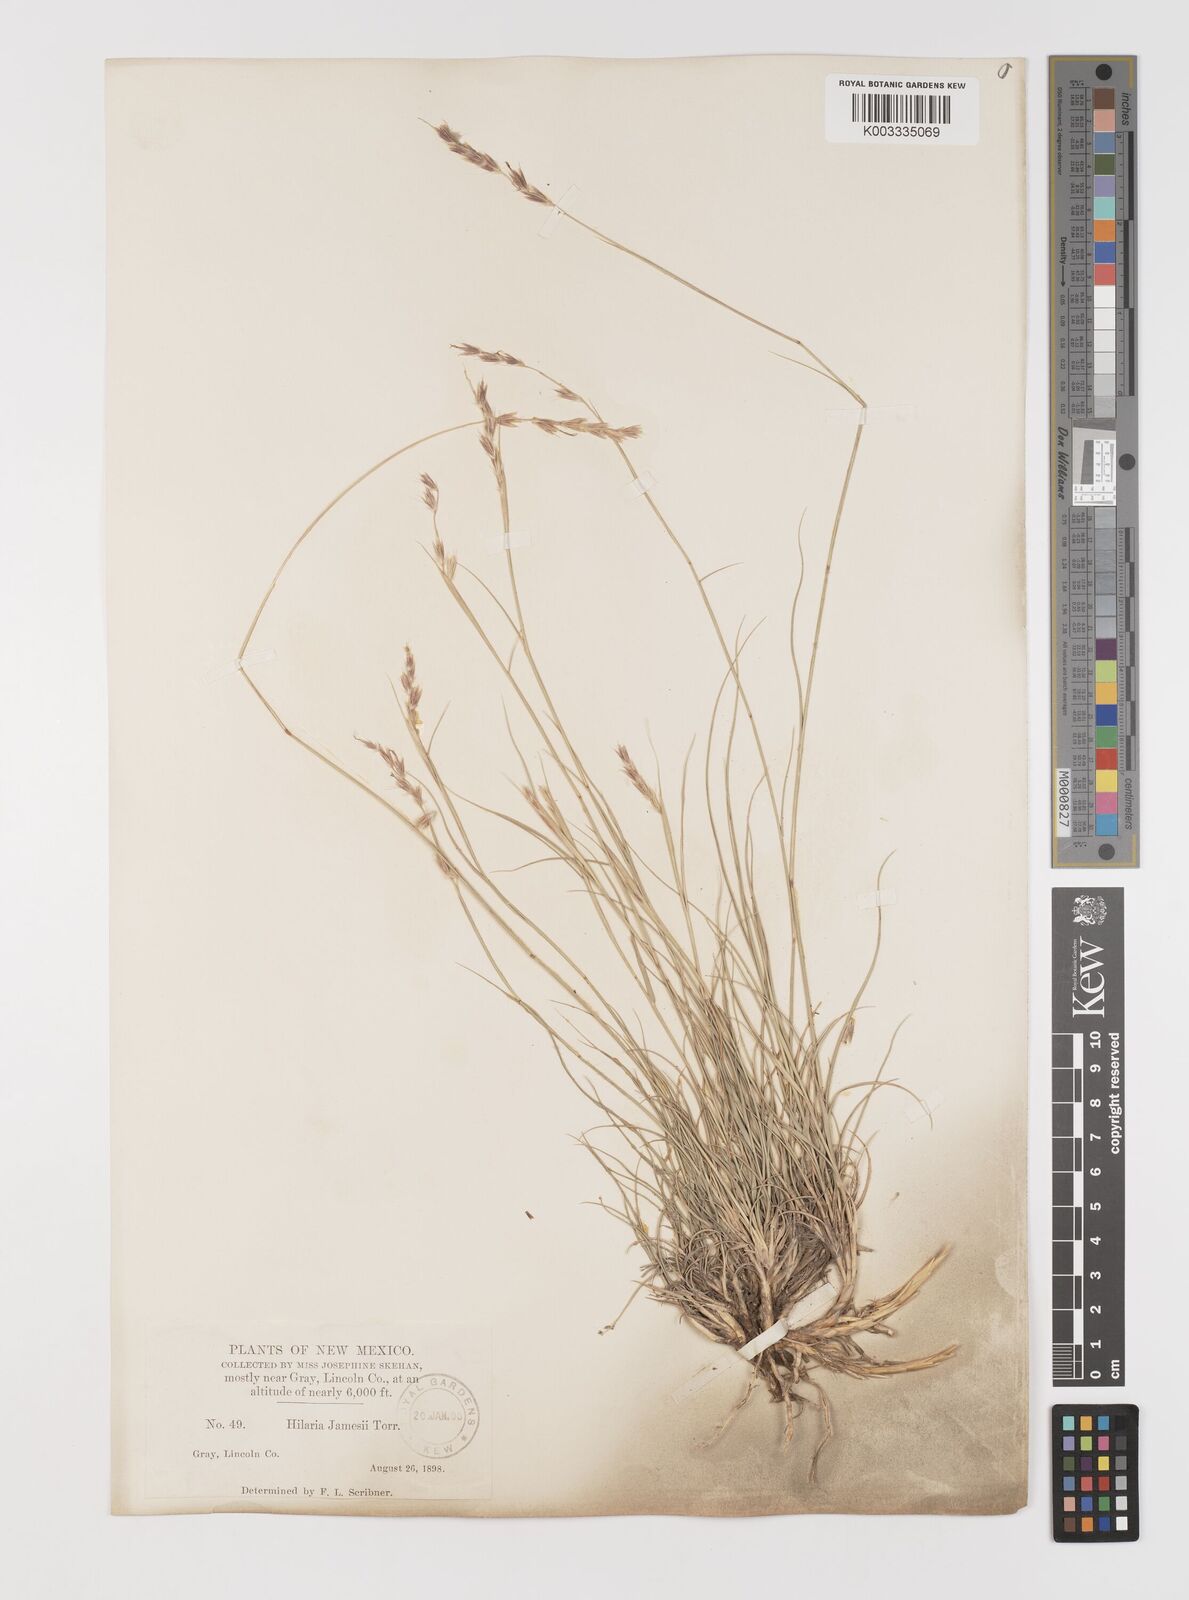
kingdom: Plantae
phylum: Tracheophyta
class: Liliopsida
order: Poales
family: Poaceae
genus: Hilaria
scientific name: Hilaria jamesii
